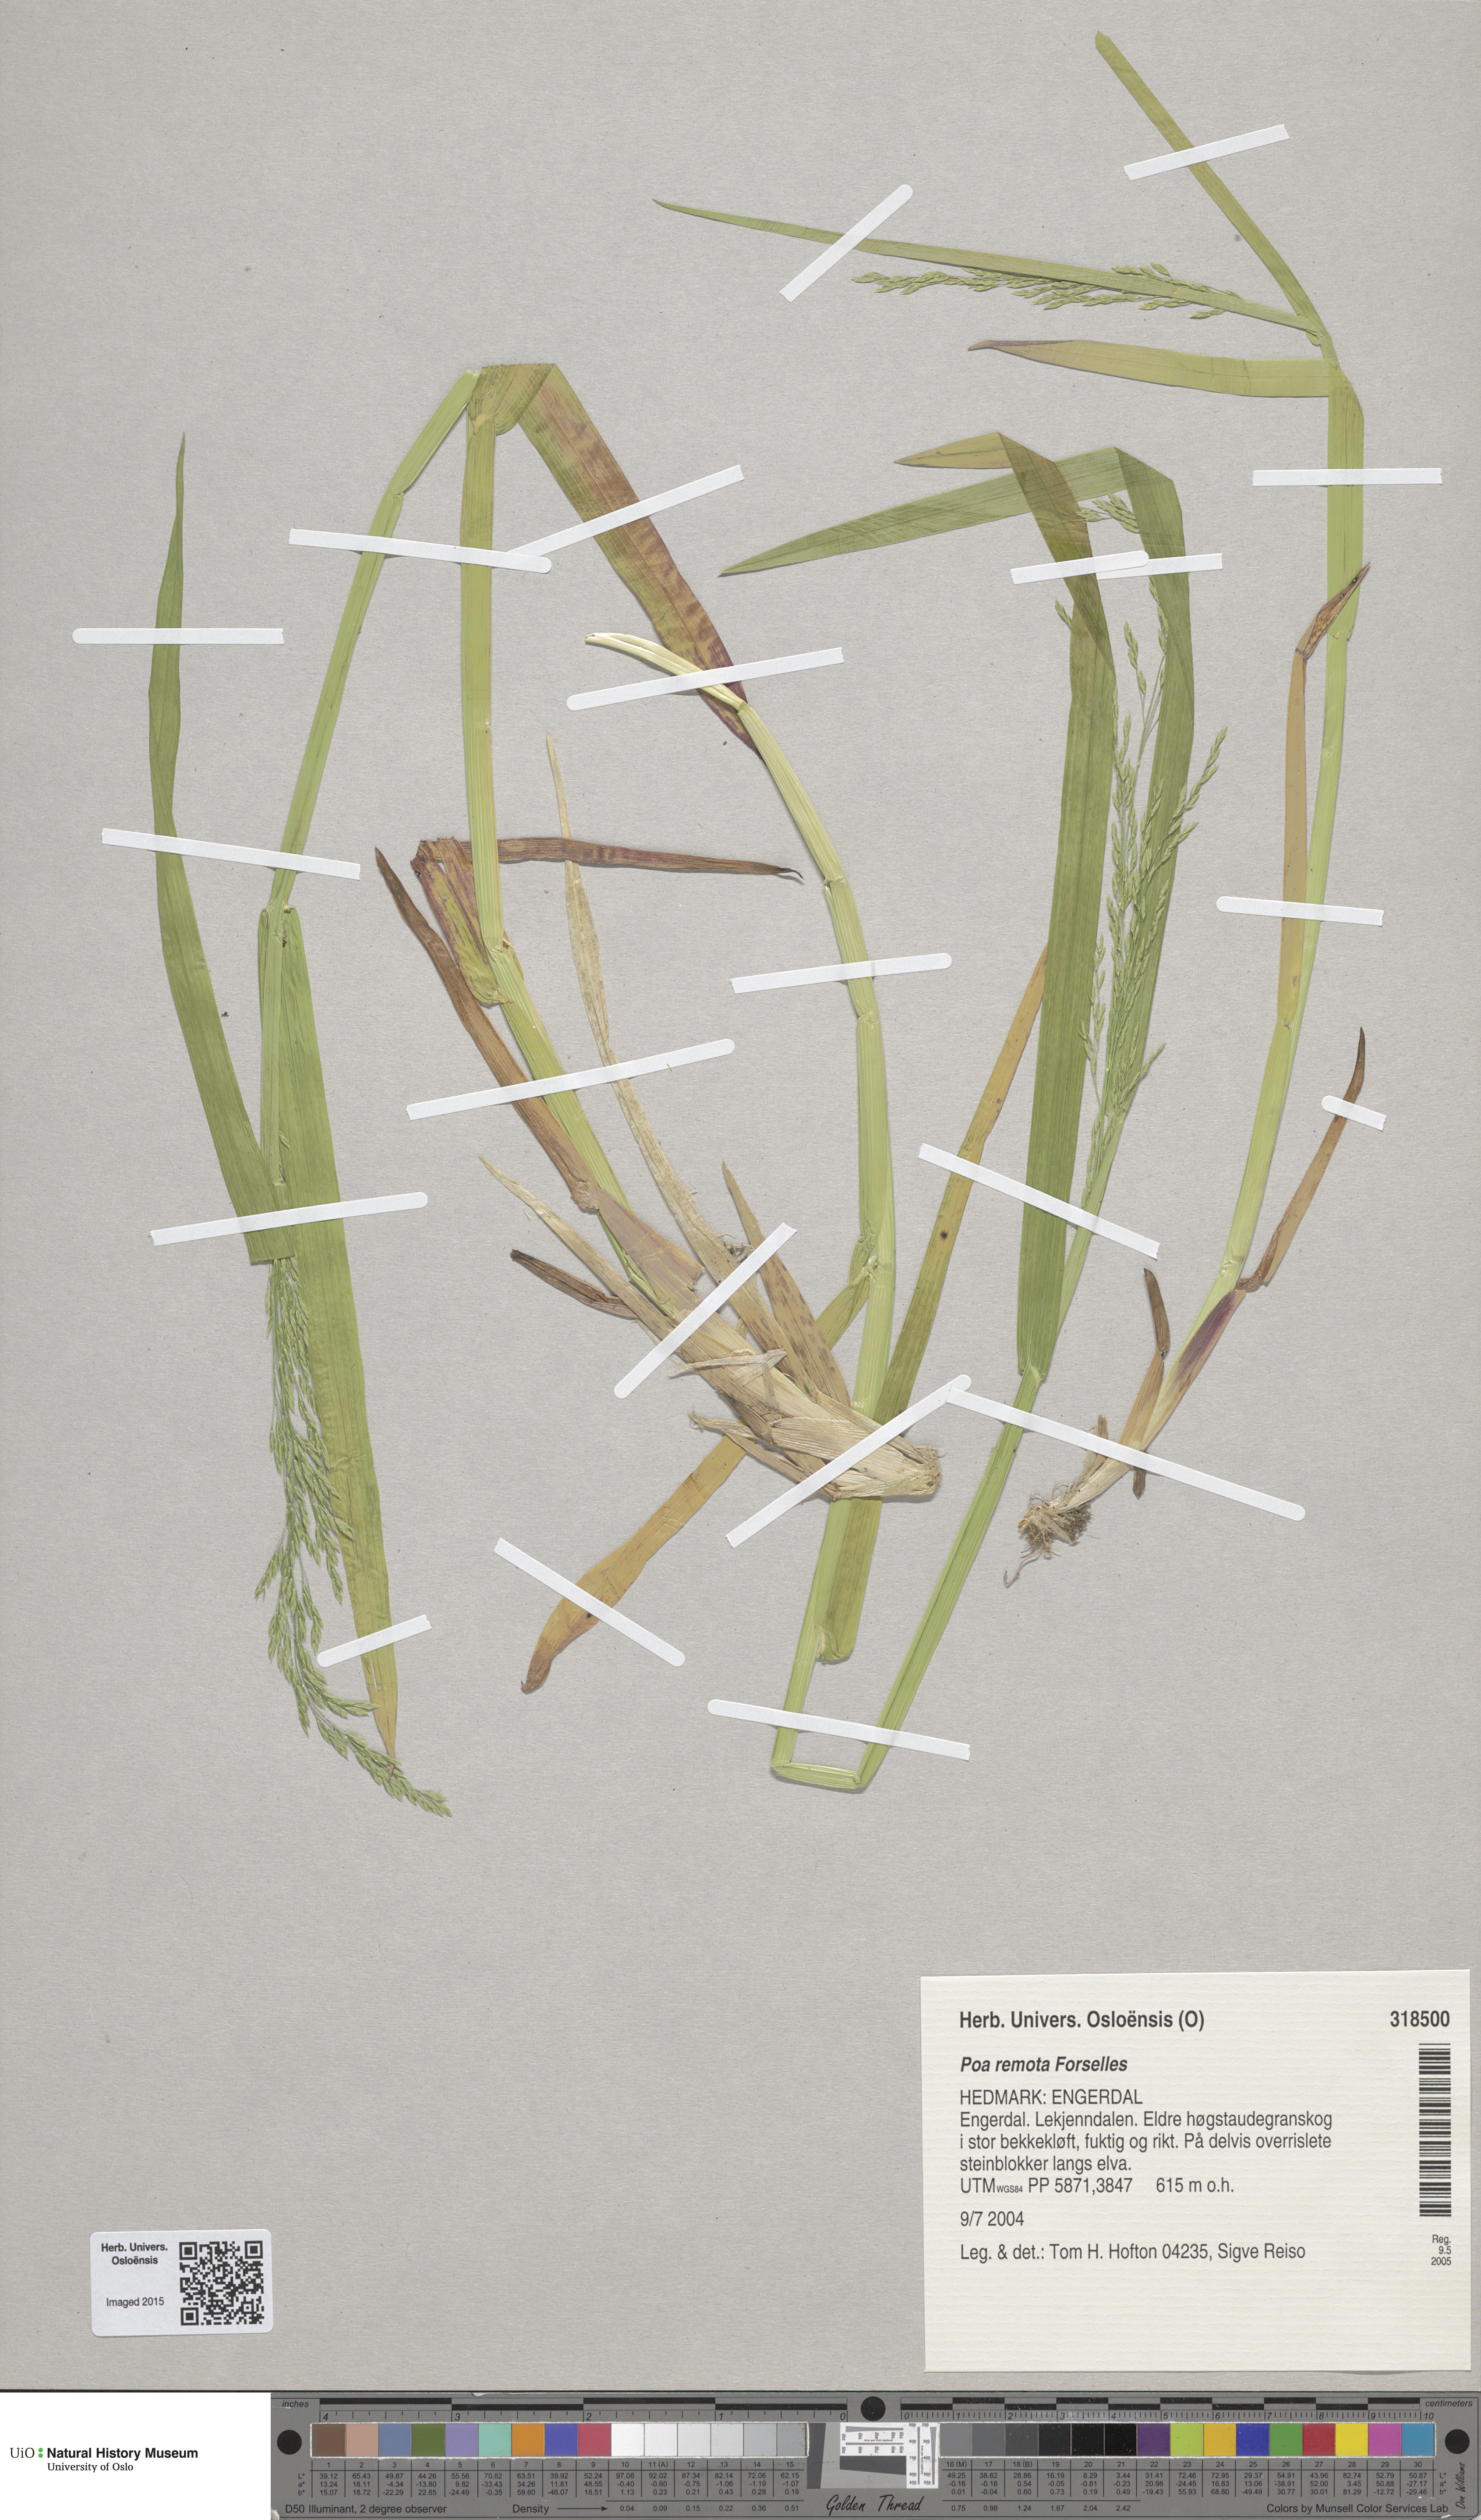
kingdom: Plantae
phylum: Tracheophyta
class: Liliopsida
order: Poales
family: Poaceae
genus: Poa
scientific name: Poa remota
